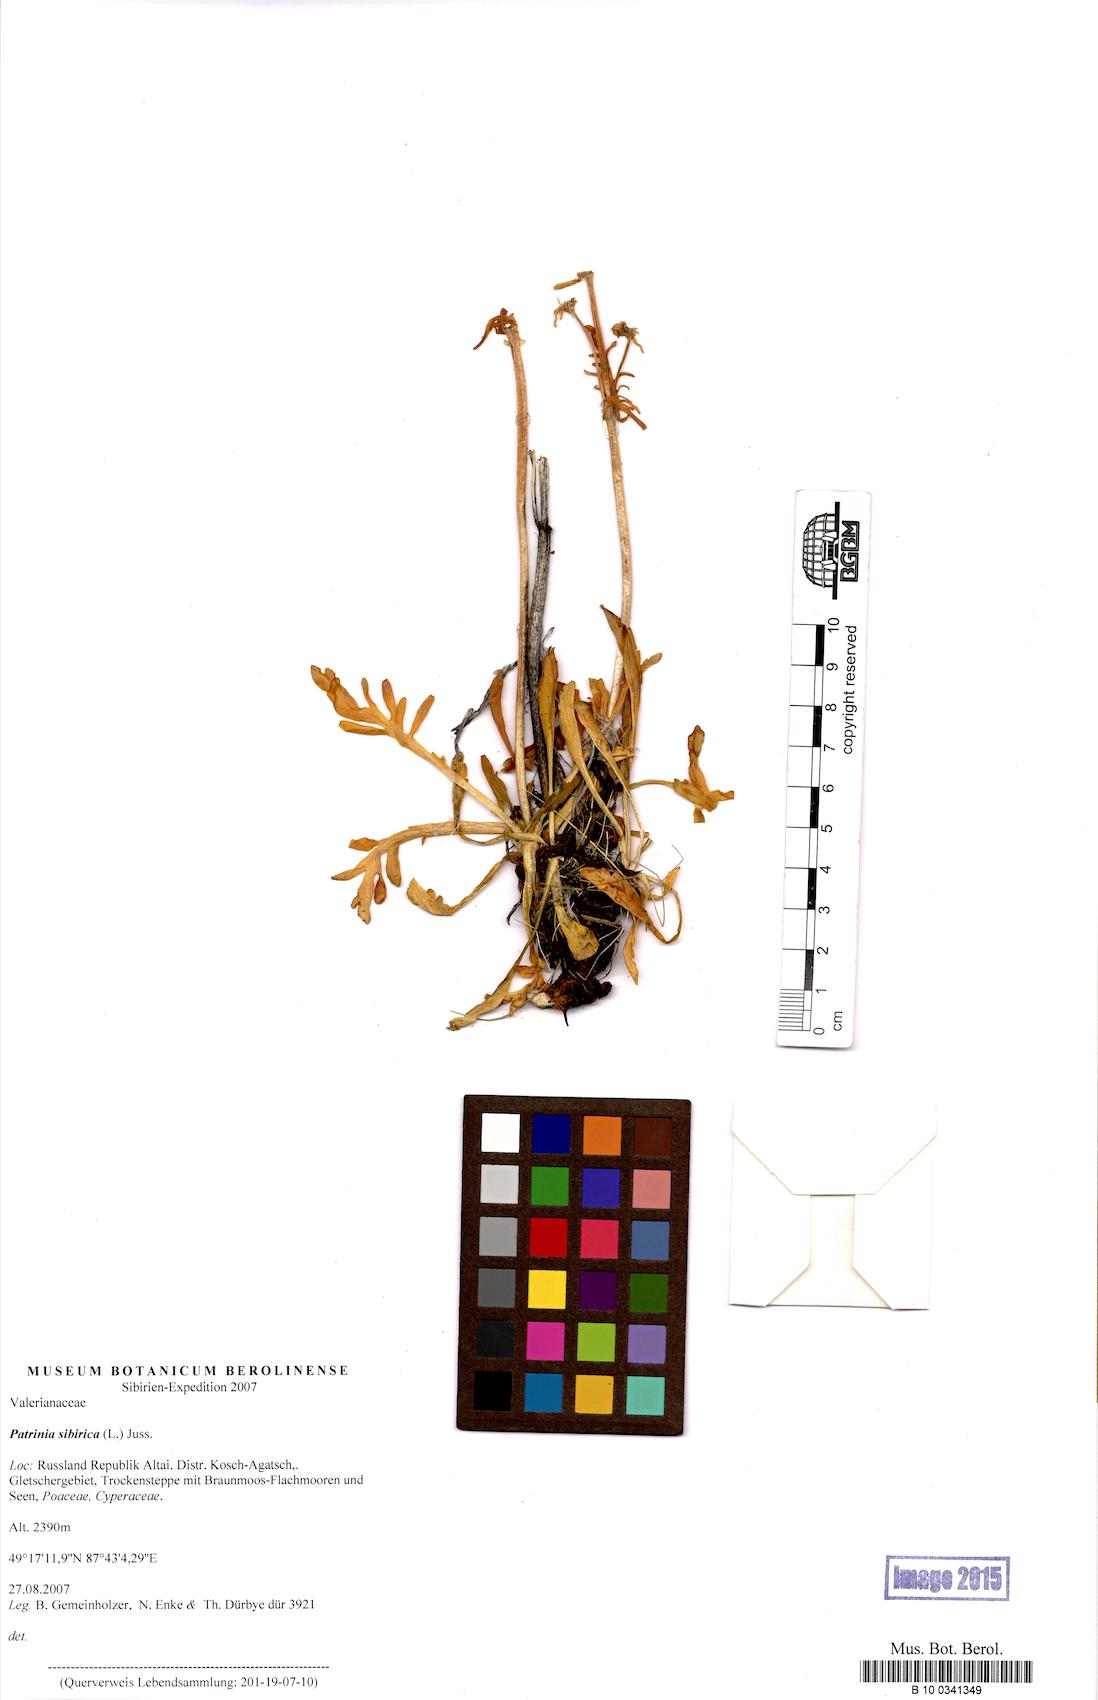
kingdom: Plantae
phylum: Tracheophyta
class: Magnoliopsida
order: Dipsacales
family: Caprifoliaceae
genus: Patrinia
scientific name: Patrinia sibirica
